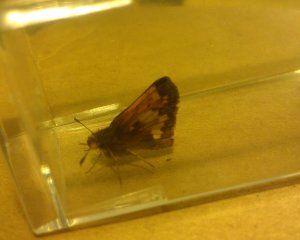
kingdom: Animalia
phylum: Arthropoda
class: Insecta
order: Lepidoptera
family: Hesperiidae
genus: Lon
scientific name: Lon hobomok
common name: Hobomok Skipper
